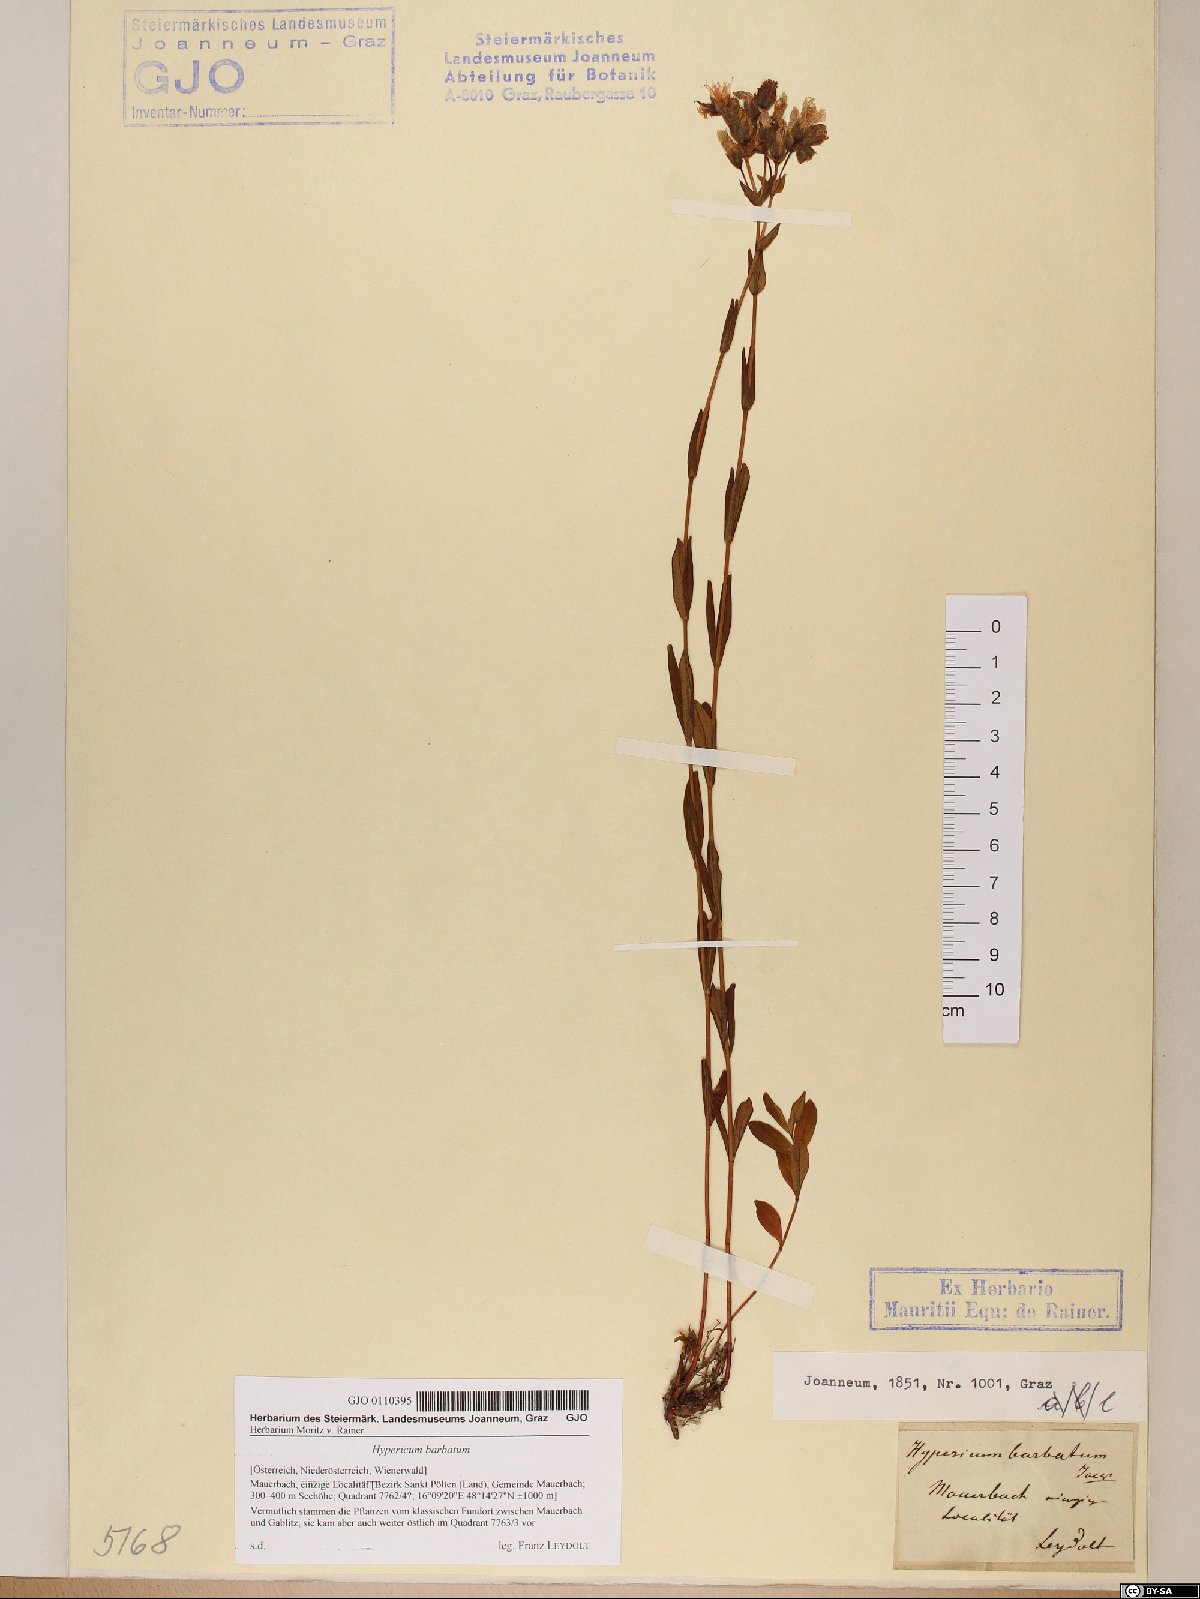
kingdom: Plantae
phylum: Tracheophyta
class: Magnoliopsida
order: Malpighiales
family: Hypericaceae
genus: Hypericum
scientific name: Hypericum barbatum
